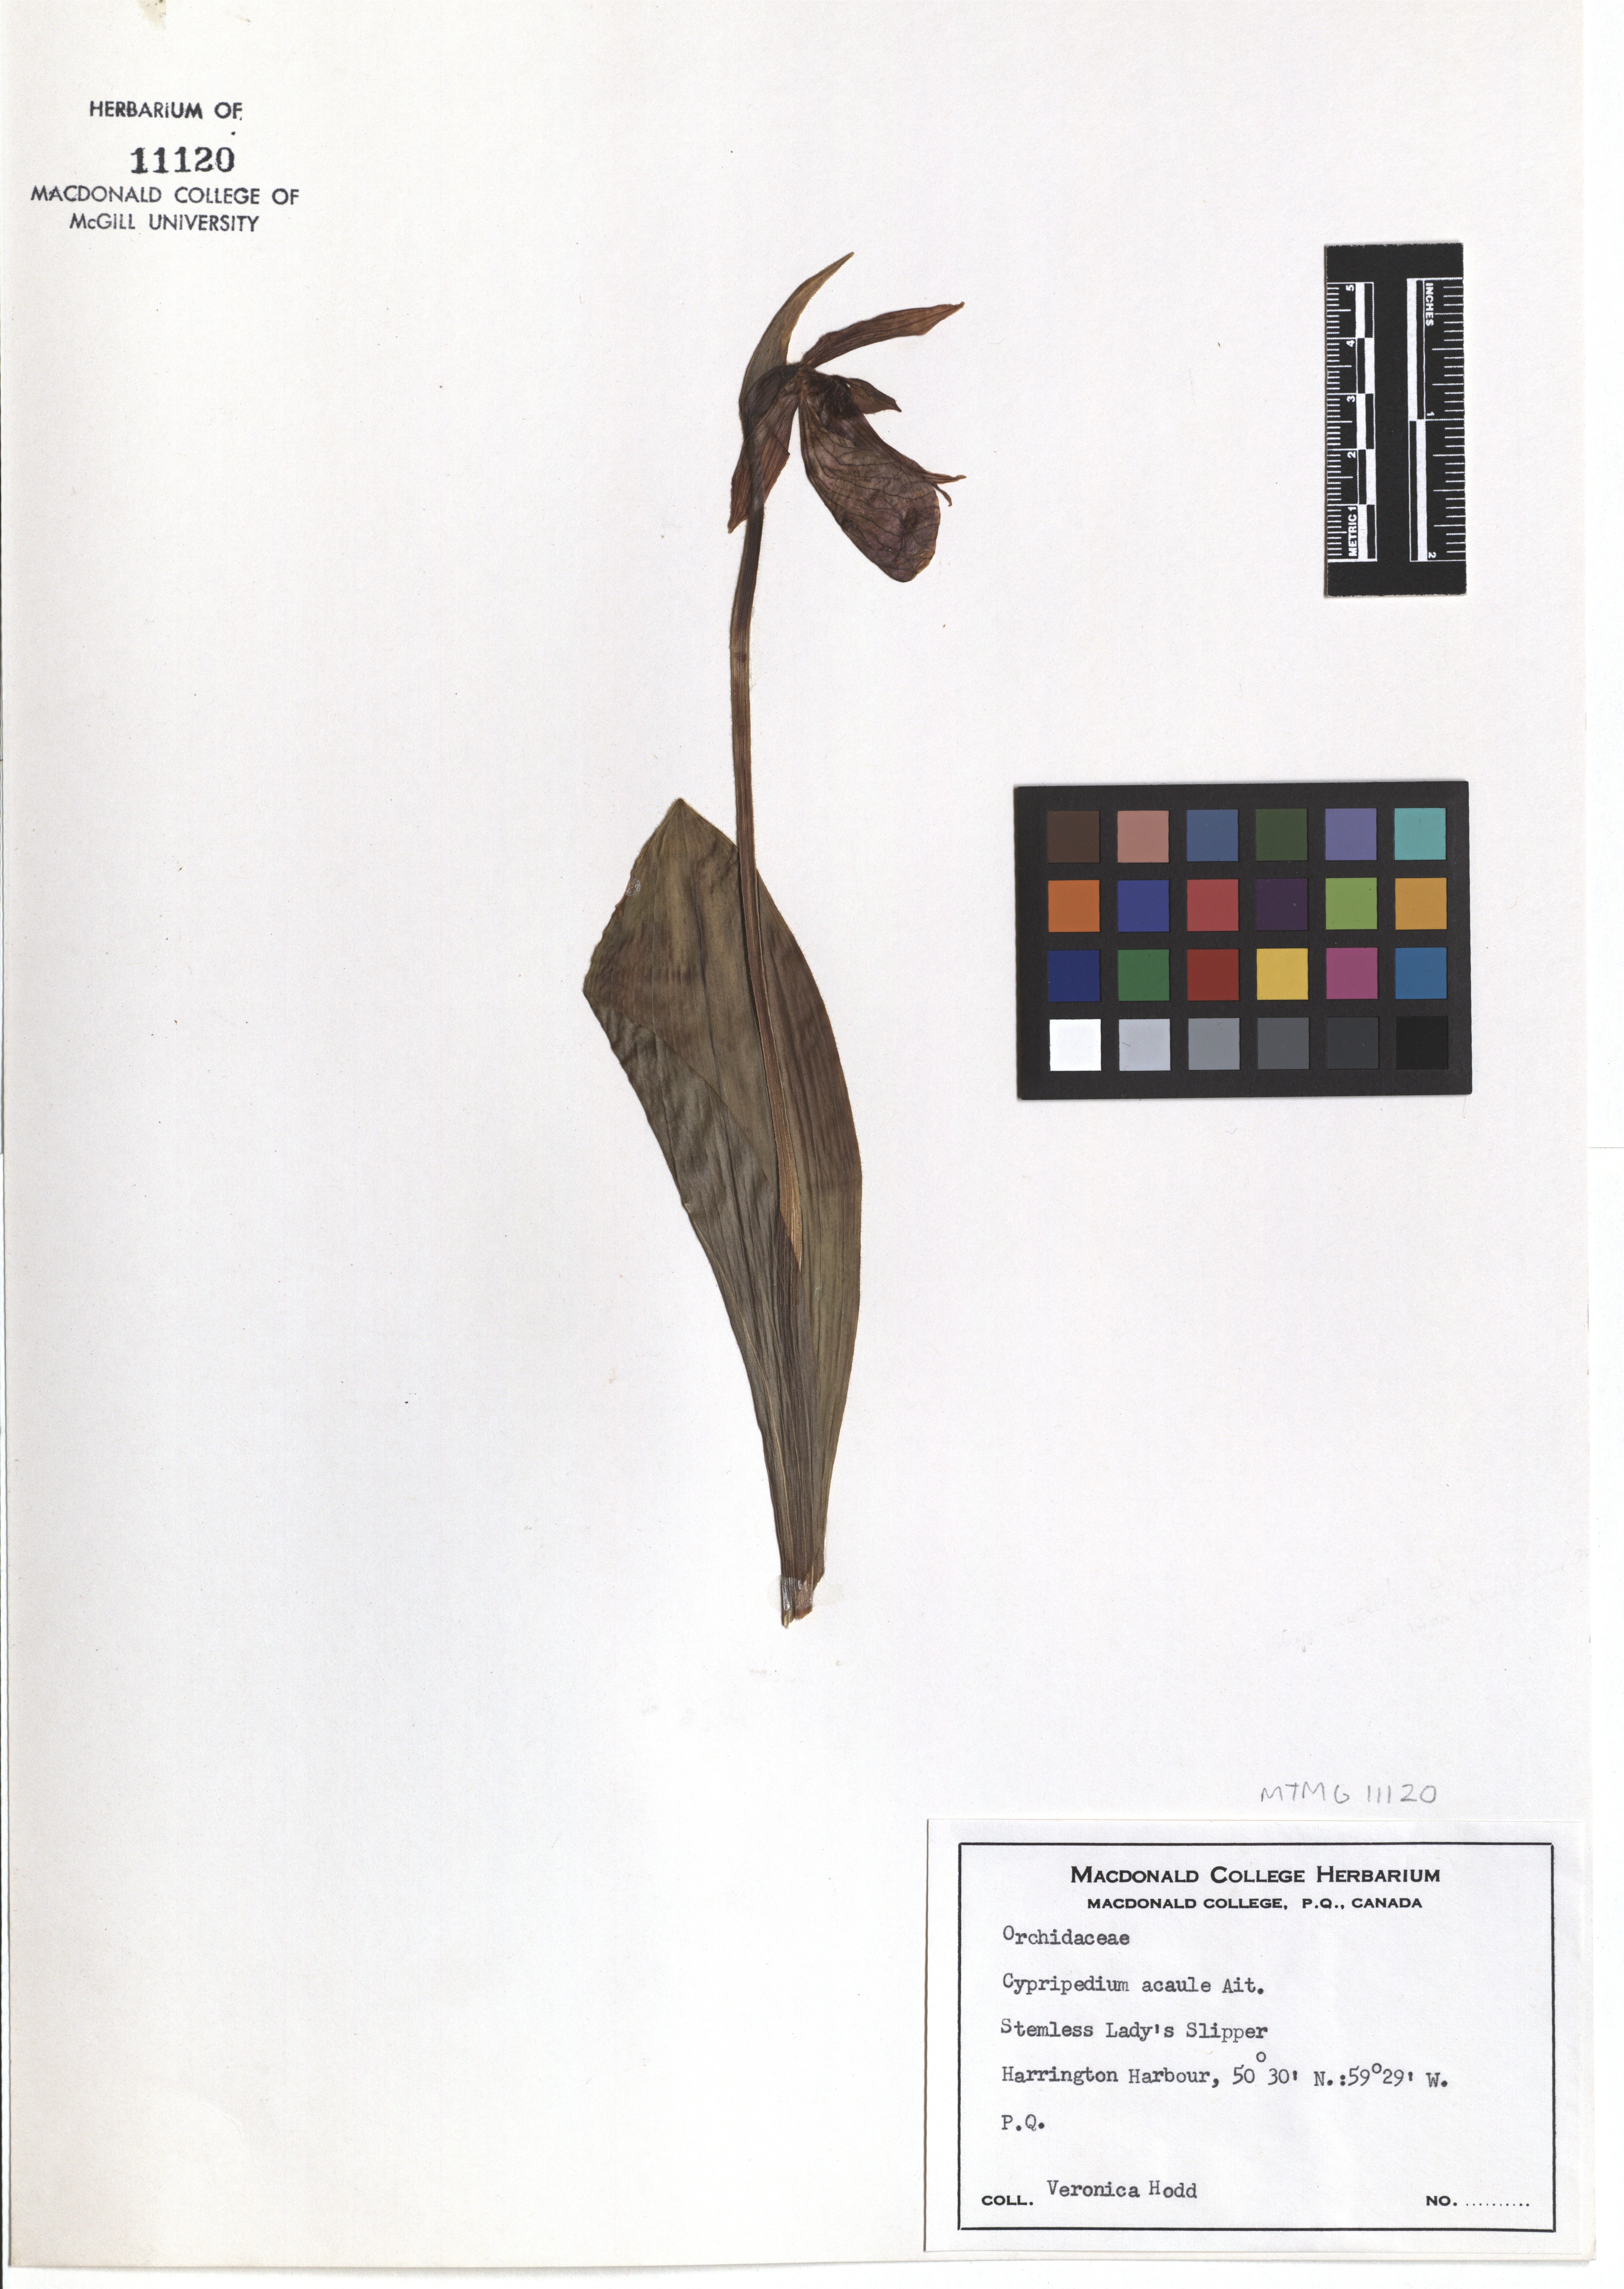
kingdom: Plantae
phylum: Tracheophyta
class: Liliopsida
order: Asparagales
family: Orchidaceae
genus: Cypripedium
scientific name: Cypripedium acaule
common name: Pink lady's-slipper
